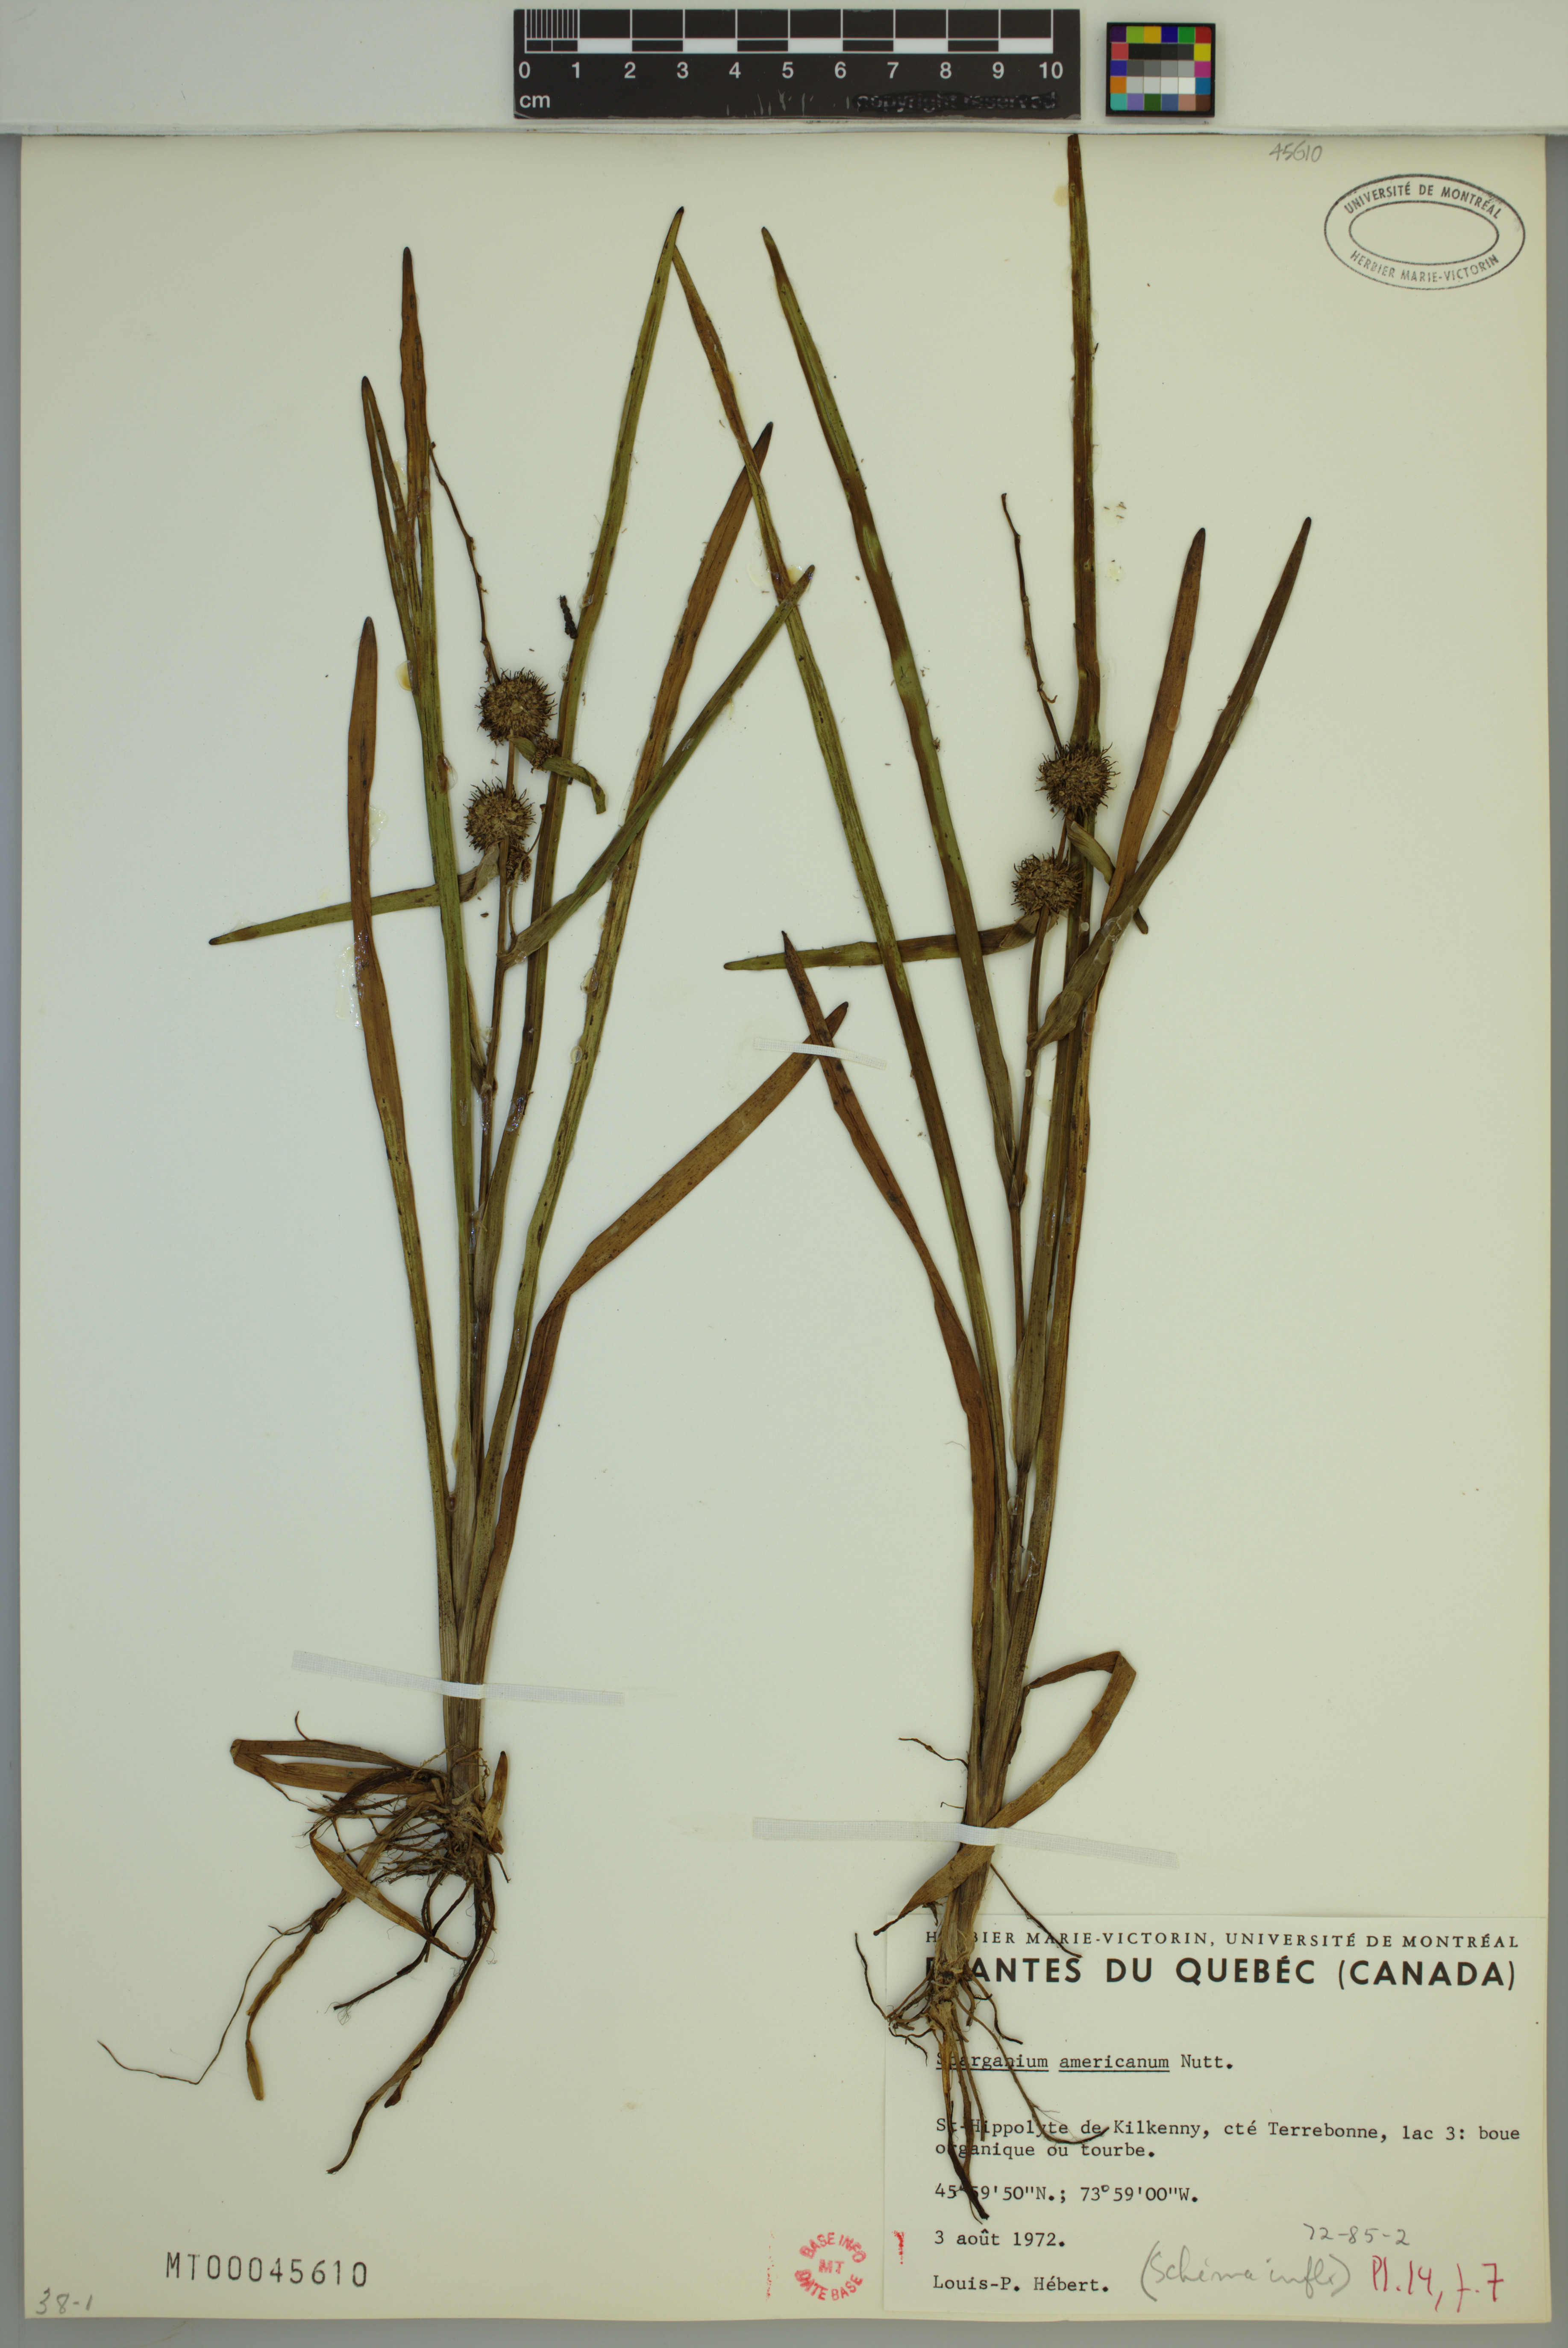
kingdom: Plantae
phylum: Tracheophyta
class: Liliopsida
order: Poales
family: Typhaceae
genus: Sparganium
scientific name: Sparganium americanum
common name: American burreed
